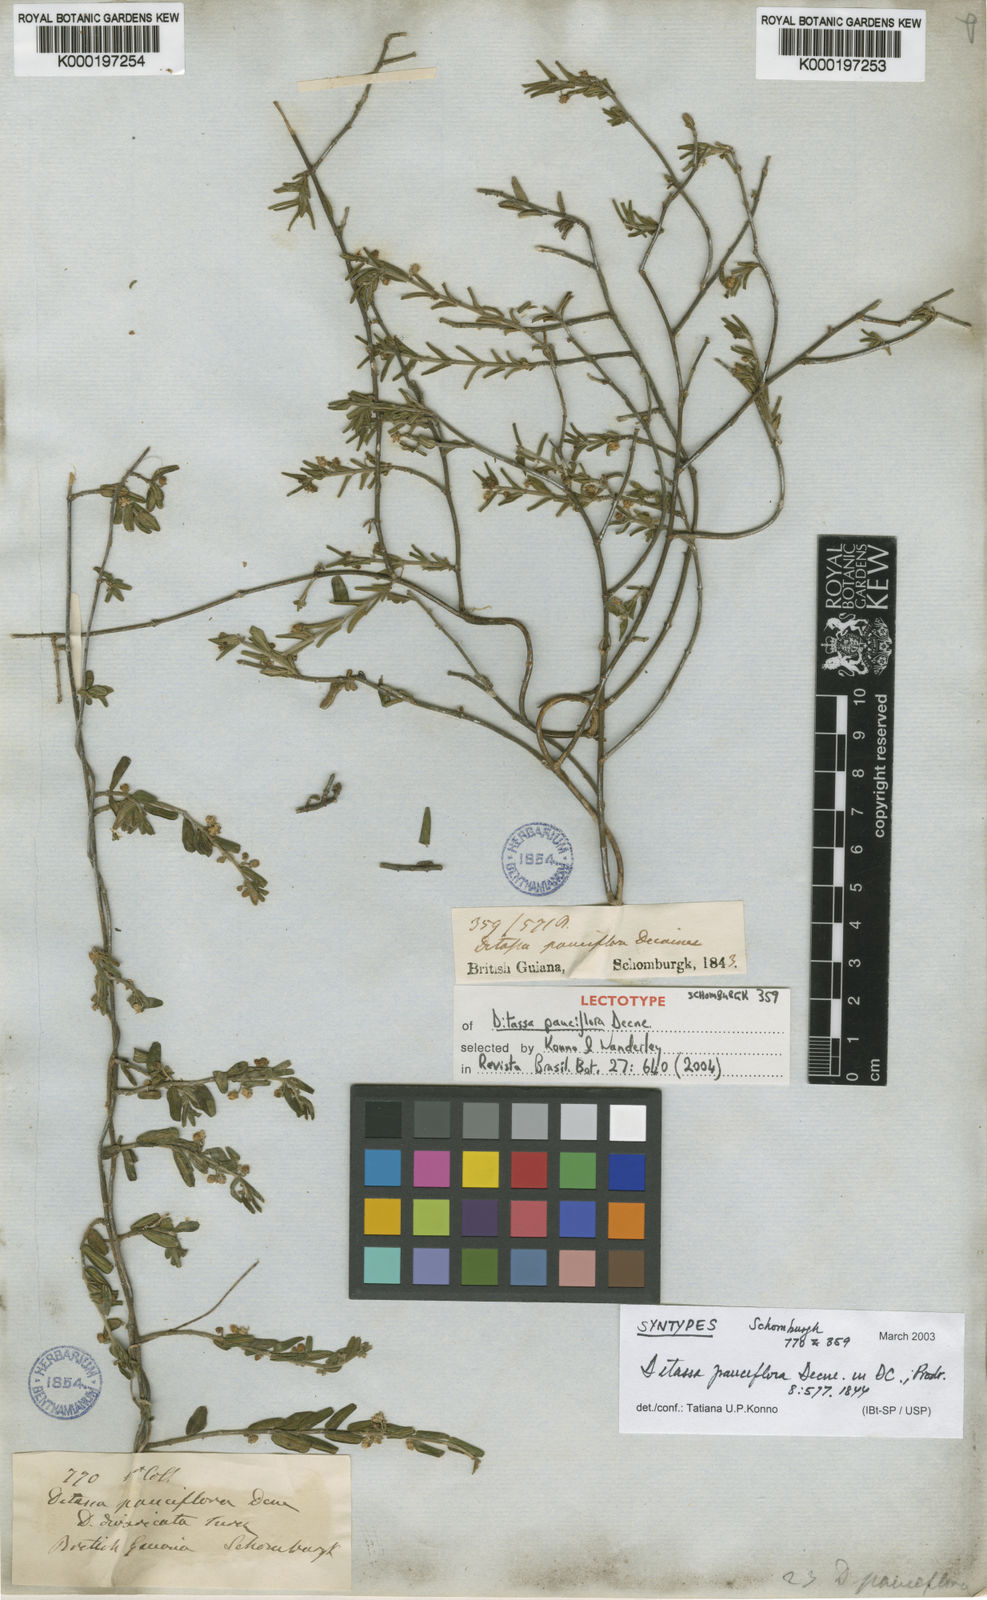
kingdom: Plantae
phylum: Tracheophyta
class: Magnoliopsida
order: Gentianales
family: Apocynaceae
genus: Ditassa
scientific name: Ditassa pauciflora
